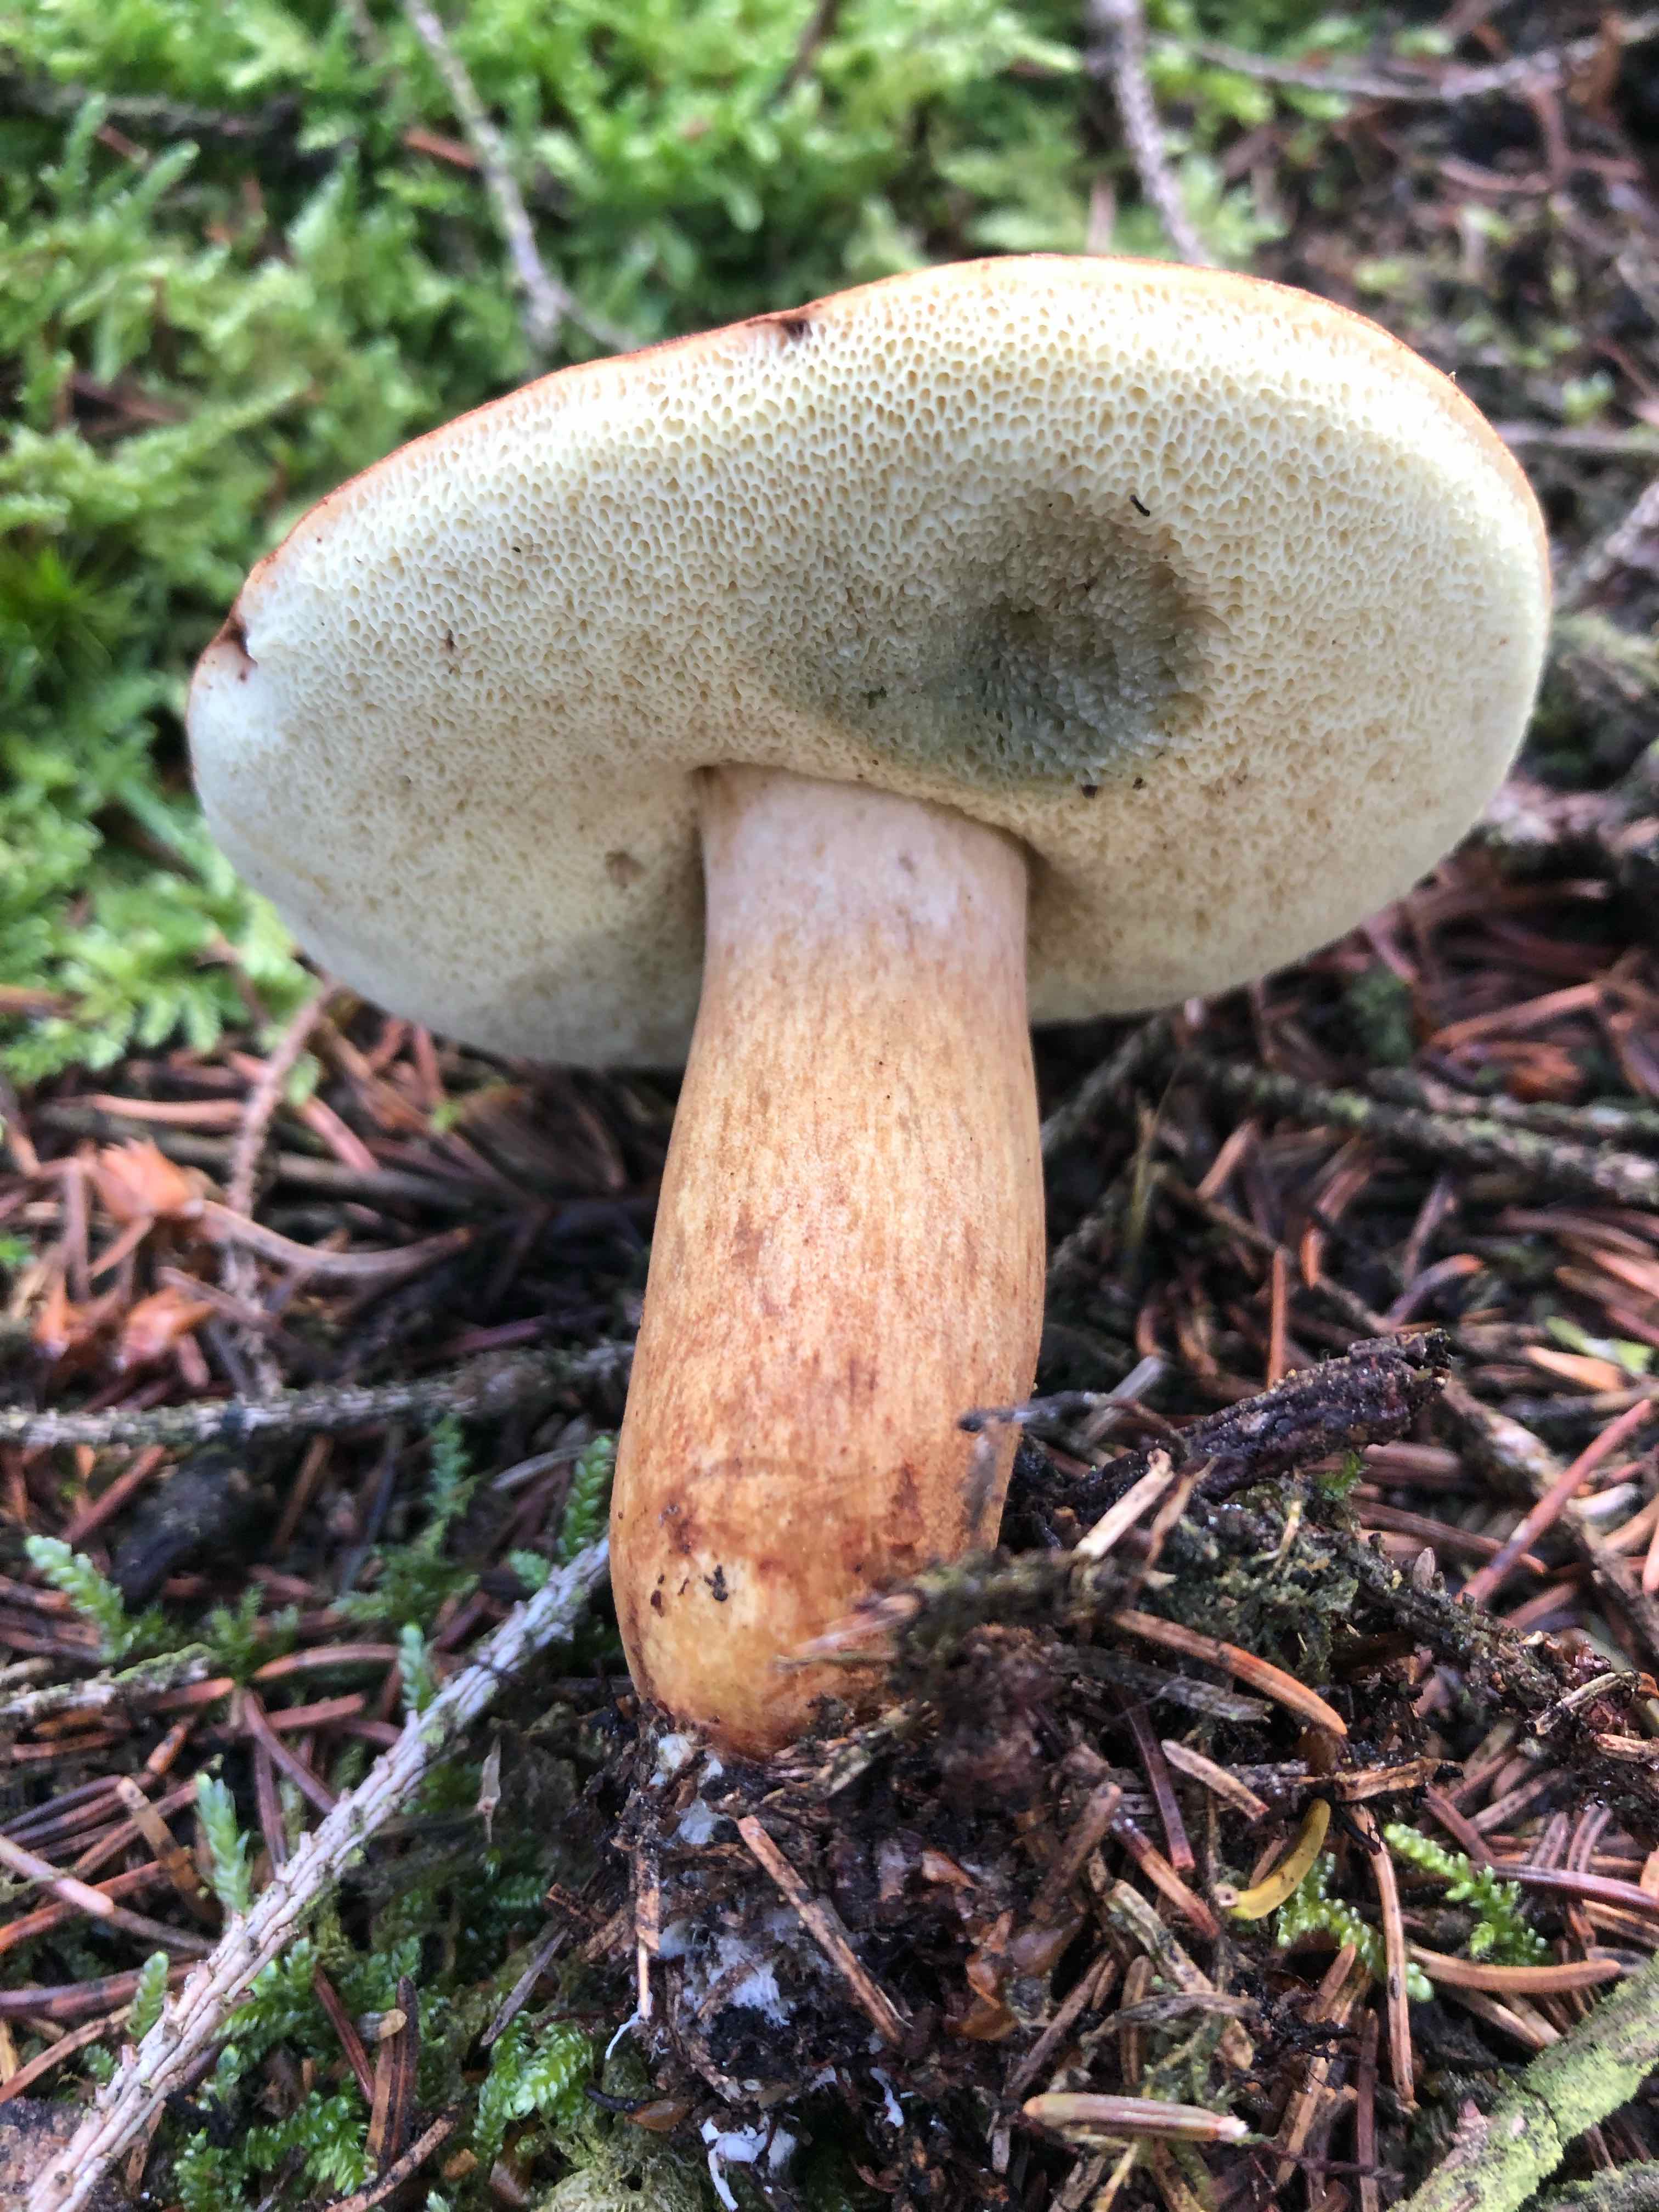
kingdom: Fungi
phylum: Basidiomycota
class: Agaricomycetes
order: Boletales
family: Boletaceae
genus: Imleria
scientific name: Imleria badia
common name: brunstokket rørhat
